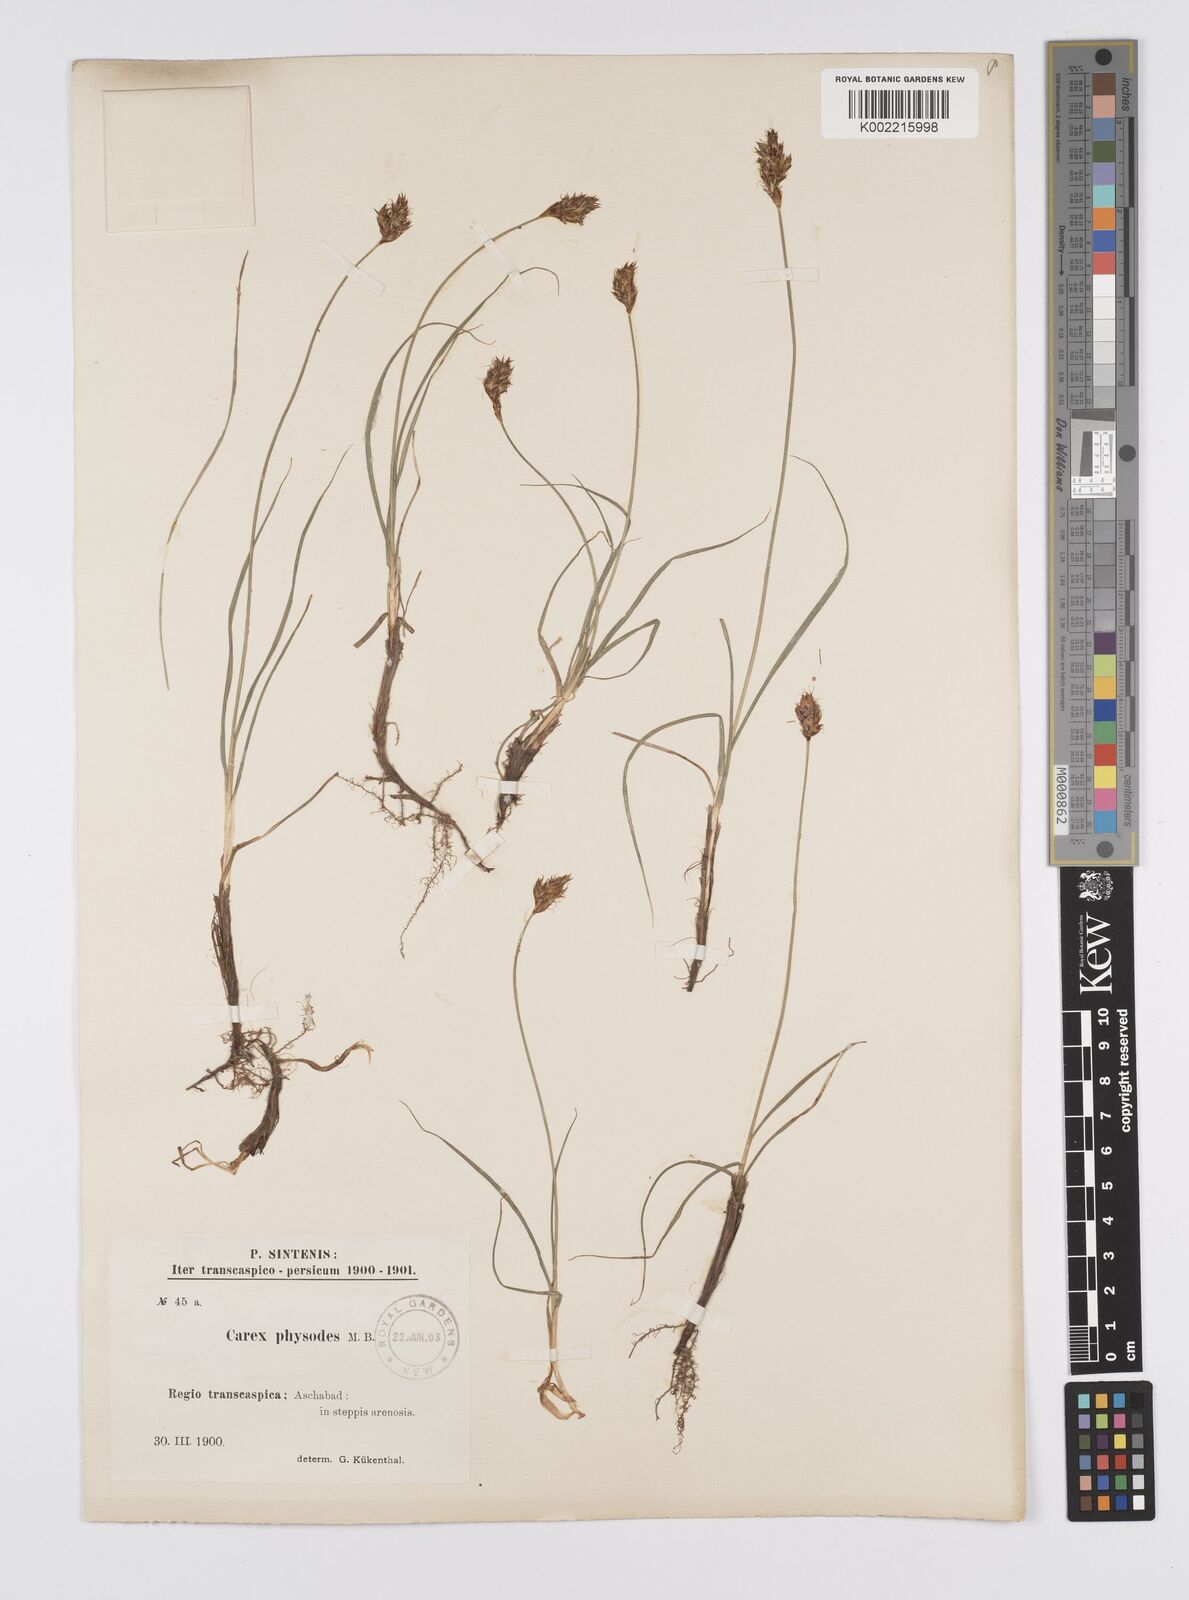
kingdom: Plantae
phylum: Tracheophyta
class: Liliopsida
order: Poales
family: Cyperaceae
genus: Carex
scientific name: Carex physodes
